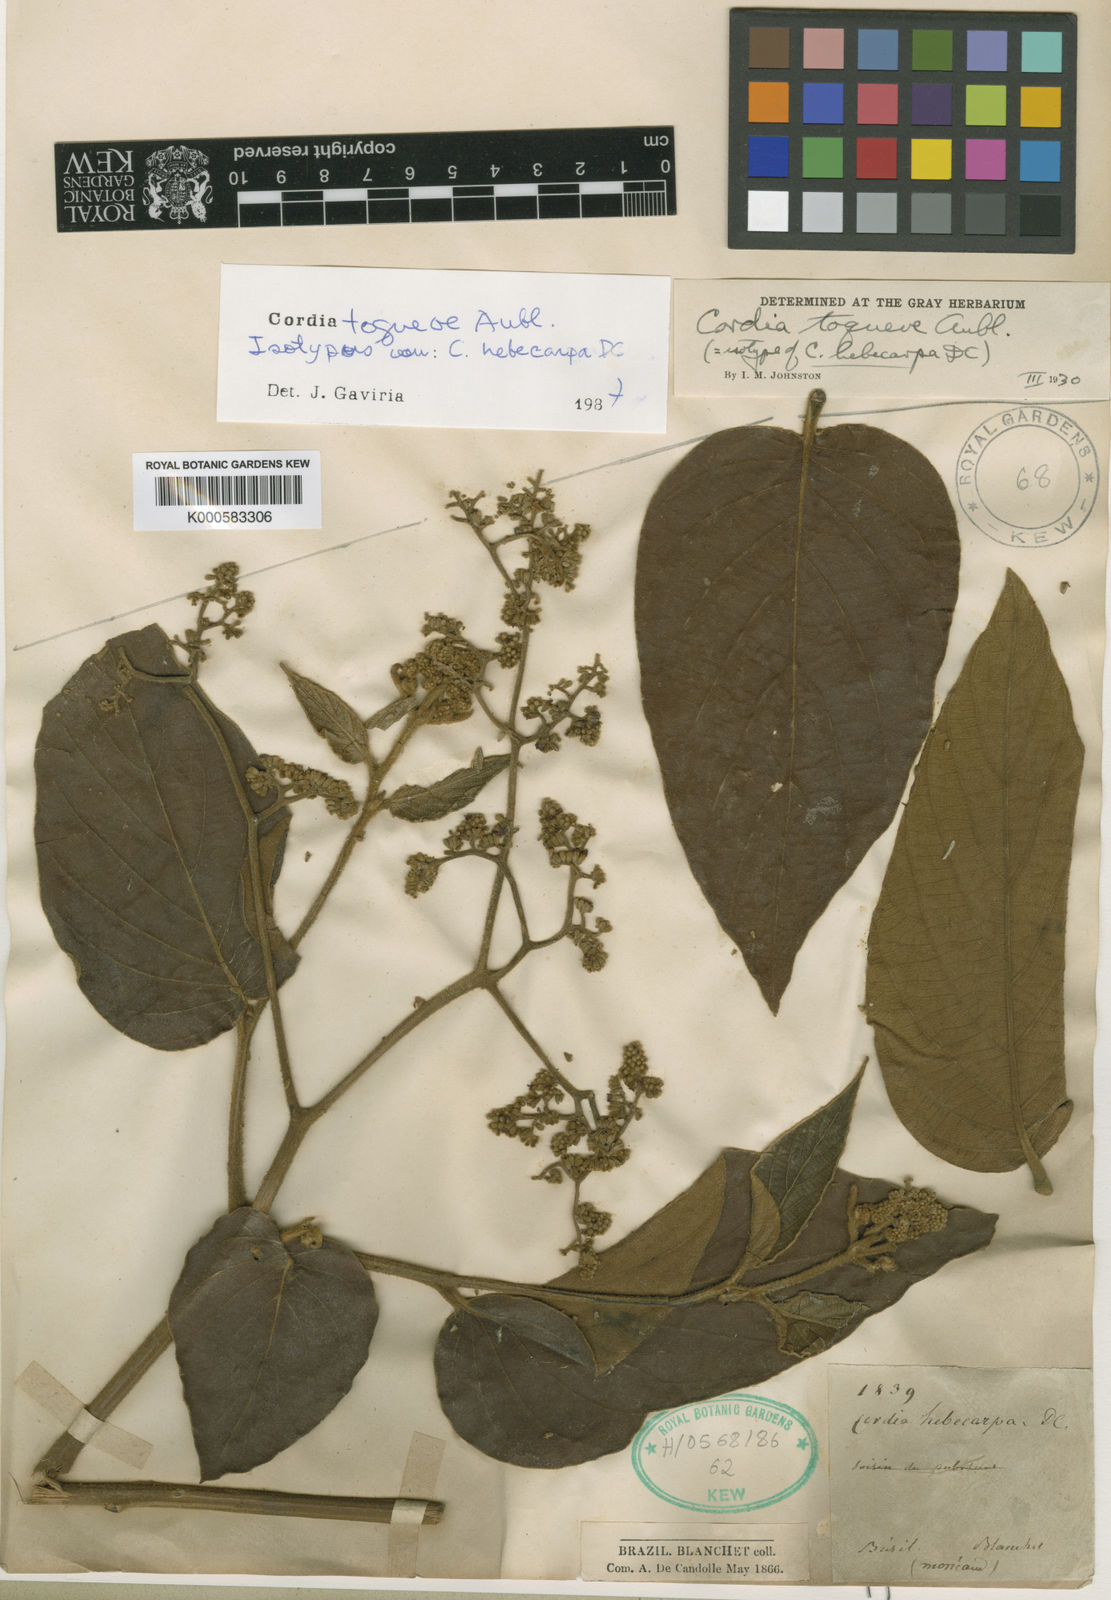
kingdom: Plantae
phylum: Tracheophyta
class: Magnoliopsida
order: Boraginales
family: Cordiaceae
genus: Cordia
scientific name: Cordia toqueve
